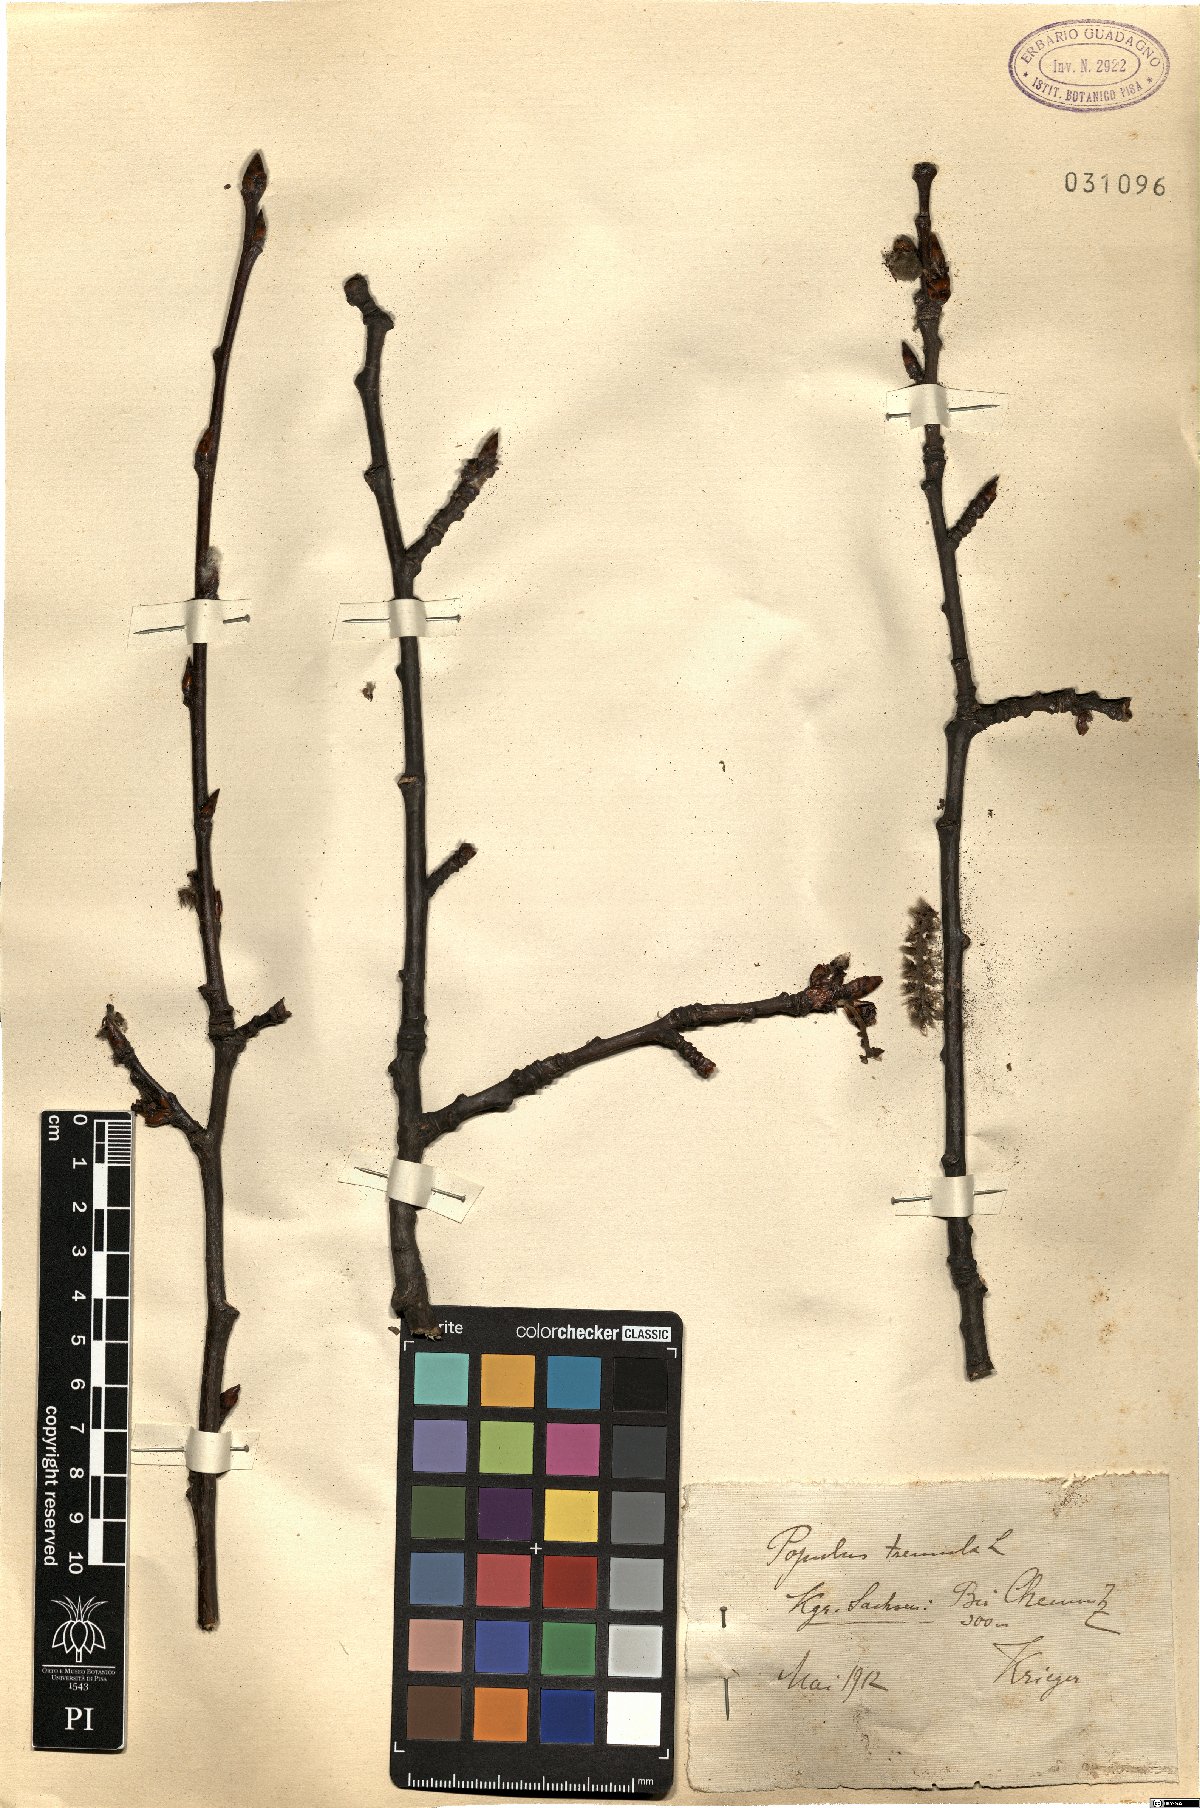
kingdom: Plantae
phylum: Tracheophyta
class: Magnoliopsida
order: Malpighiales
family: Salicaceae
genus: Populus
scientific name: Populus tremula
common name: European aspen
